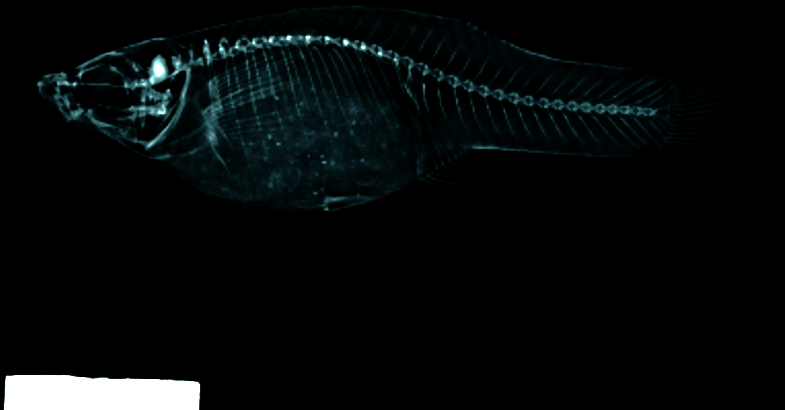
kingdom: Animalia
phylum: Chordata
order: Cyprinodontiformes
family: Poeciliidae
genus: Gambusia
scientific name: Gambusia affinis
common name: Mosquitofish
